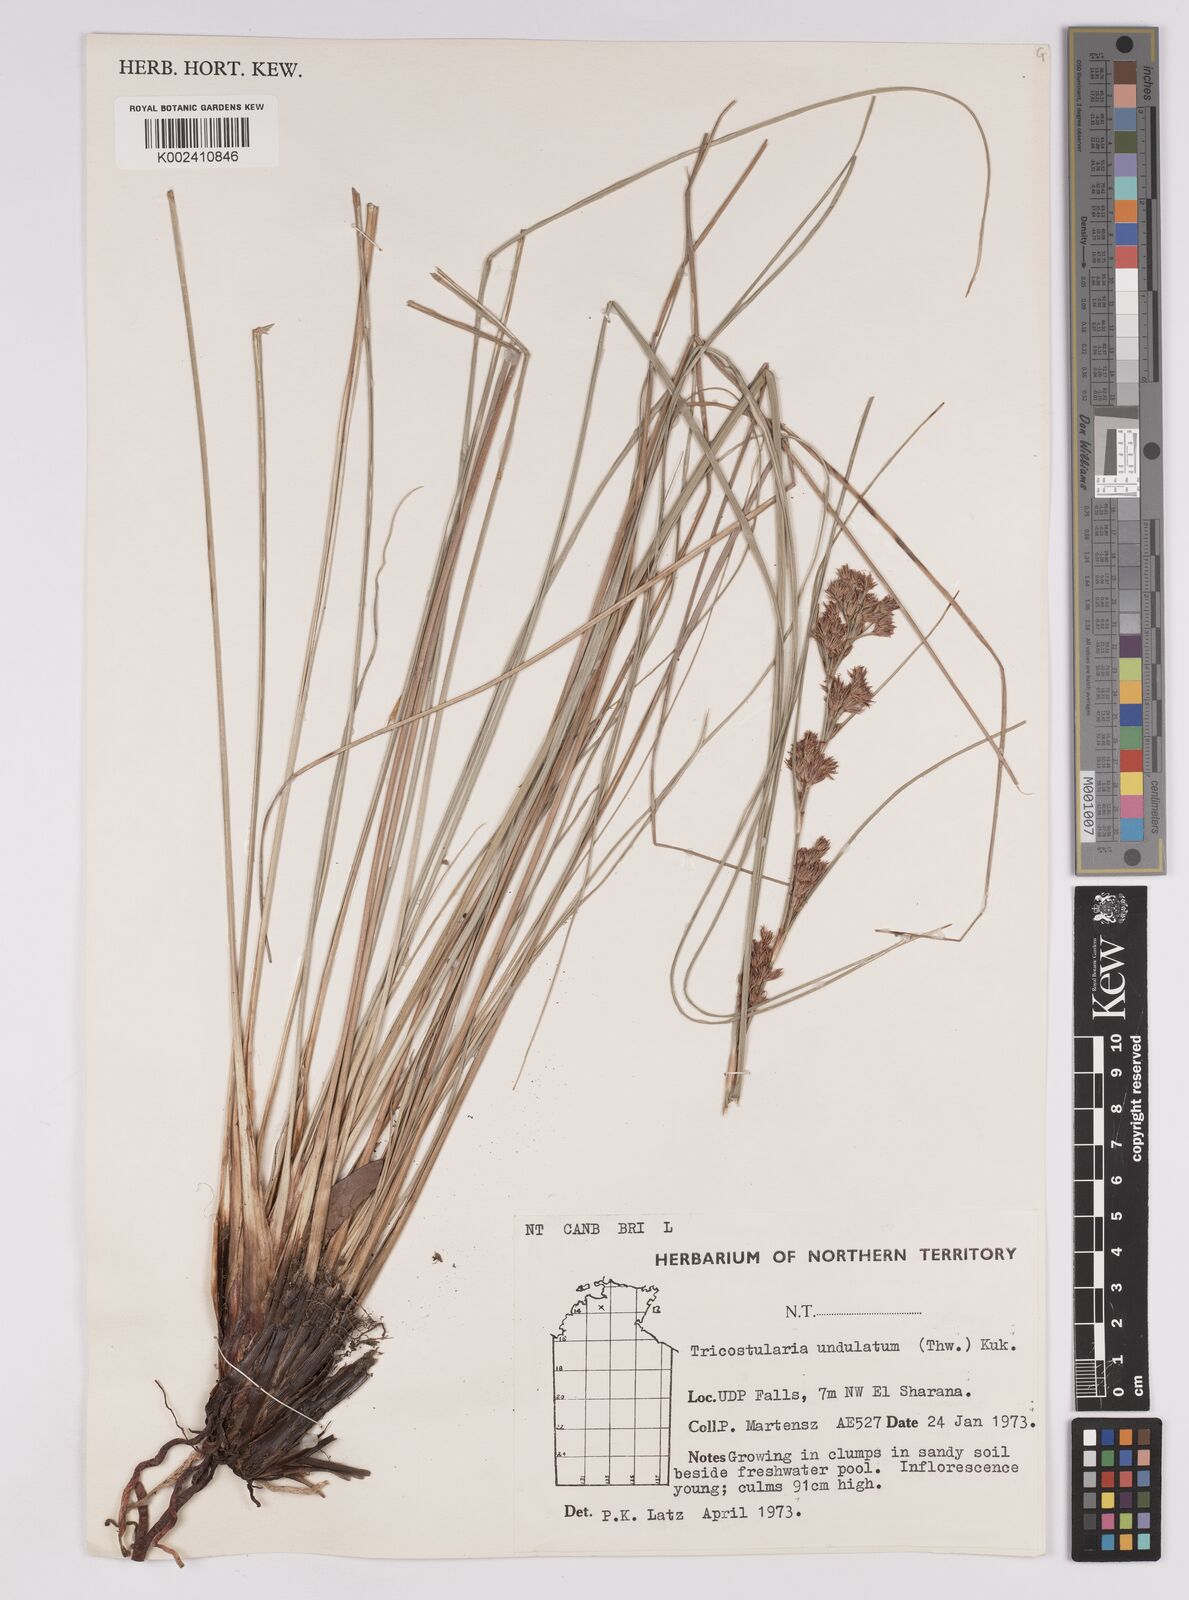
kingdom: Plantae
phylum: Tracheophyta
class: Liliopsida
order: Poales
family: Cyperaceae
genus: Anthelepis
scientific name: Anthelepis undulata
